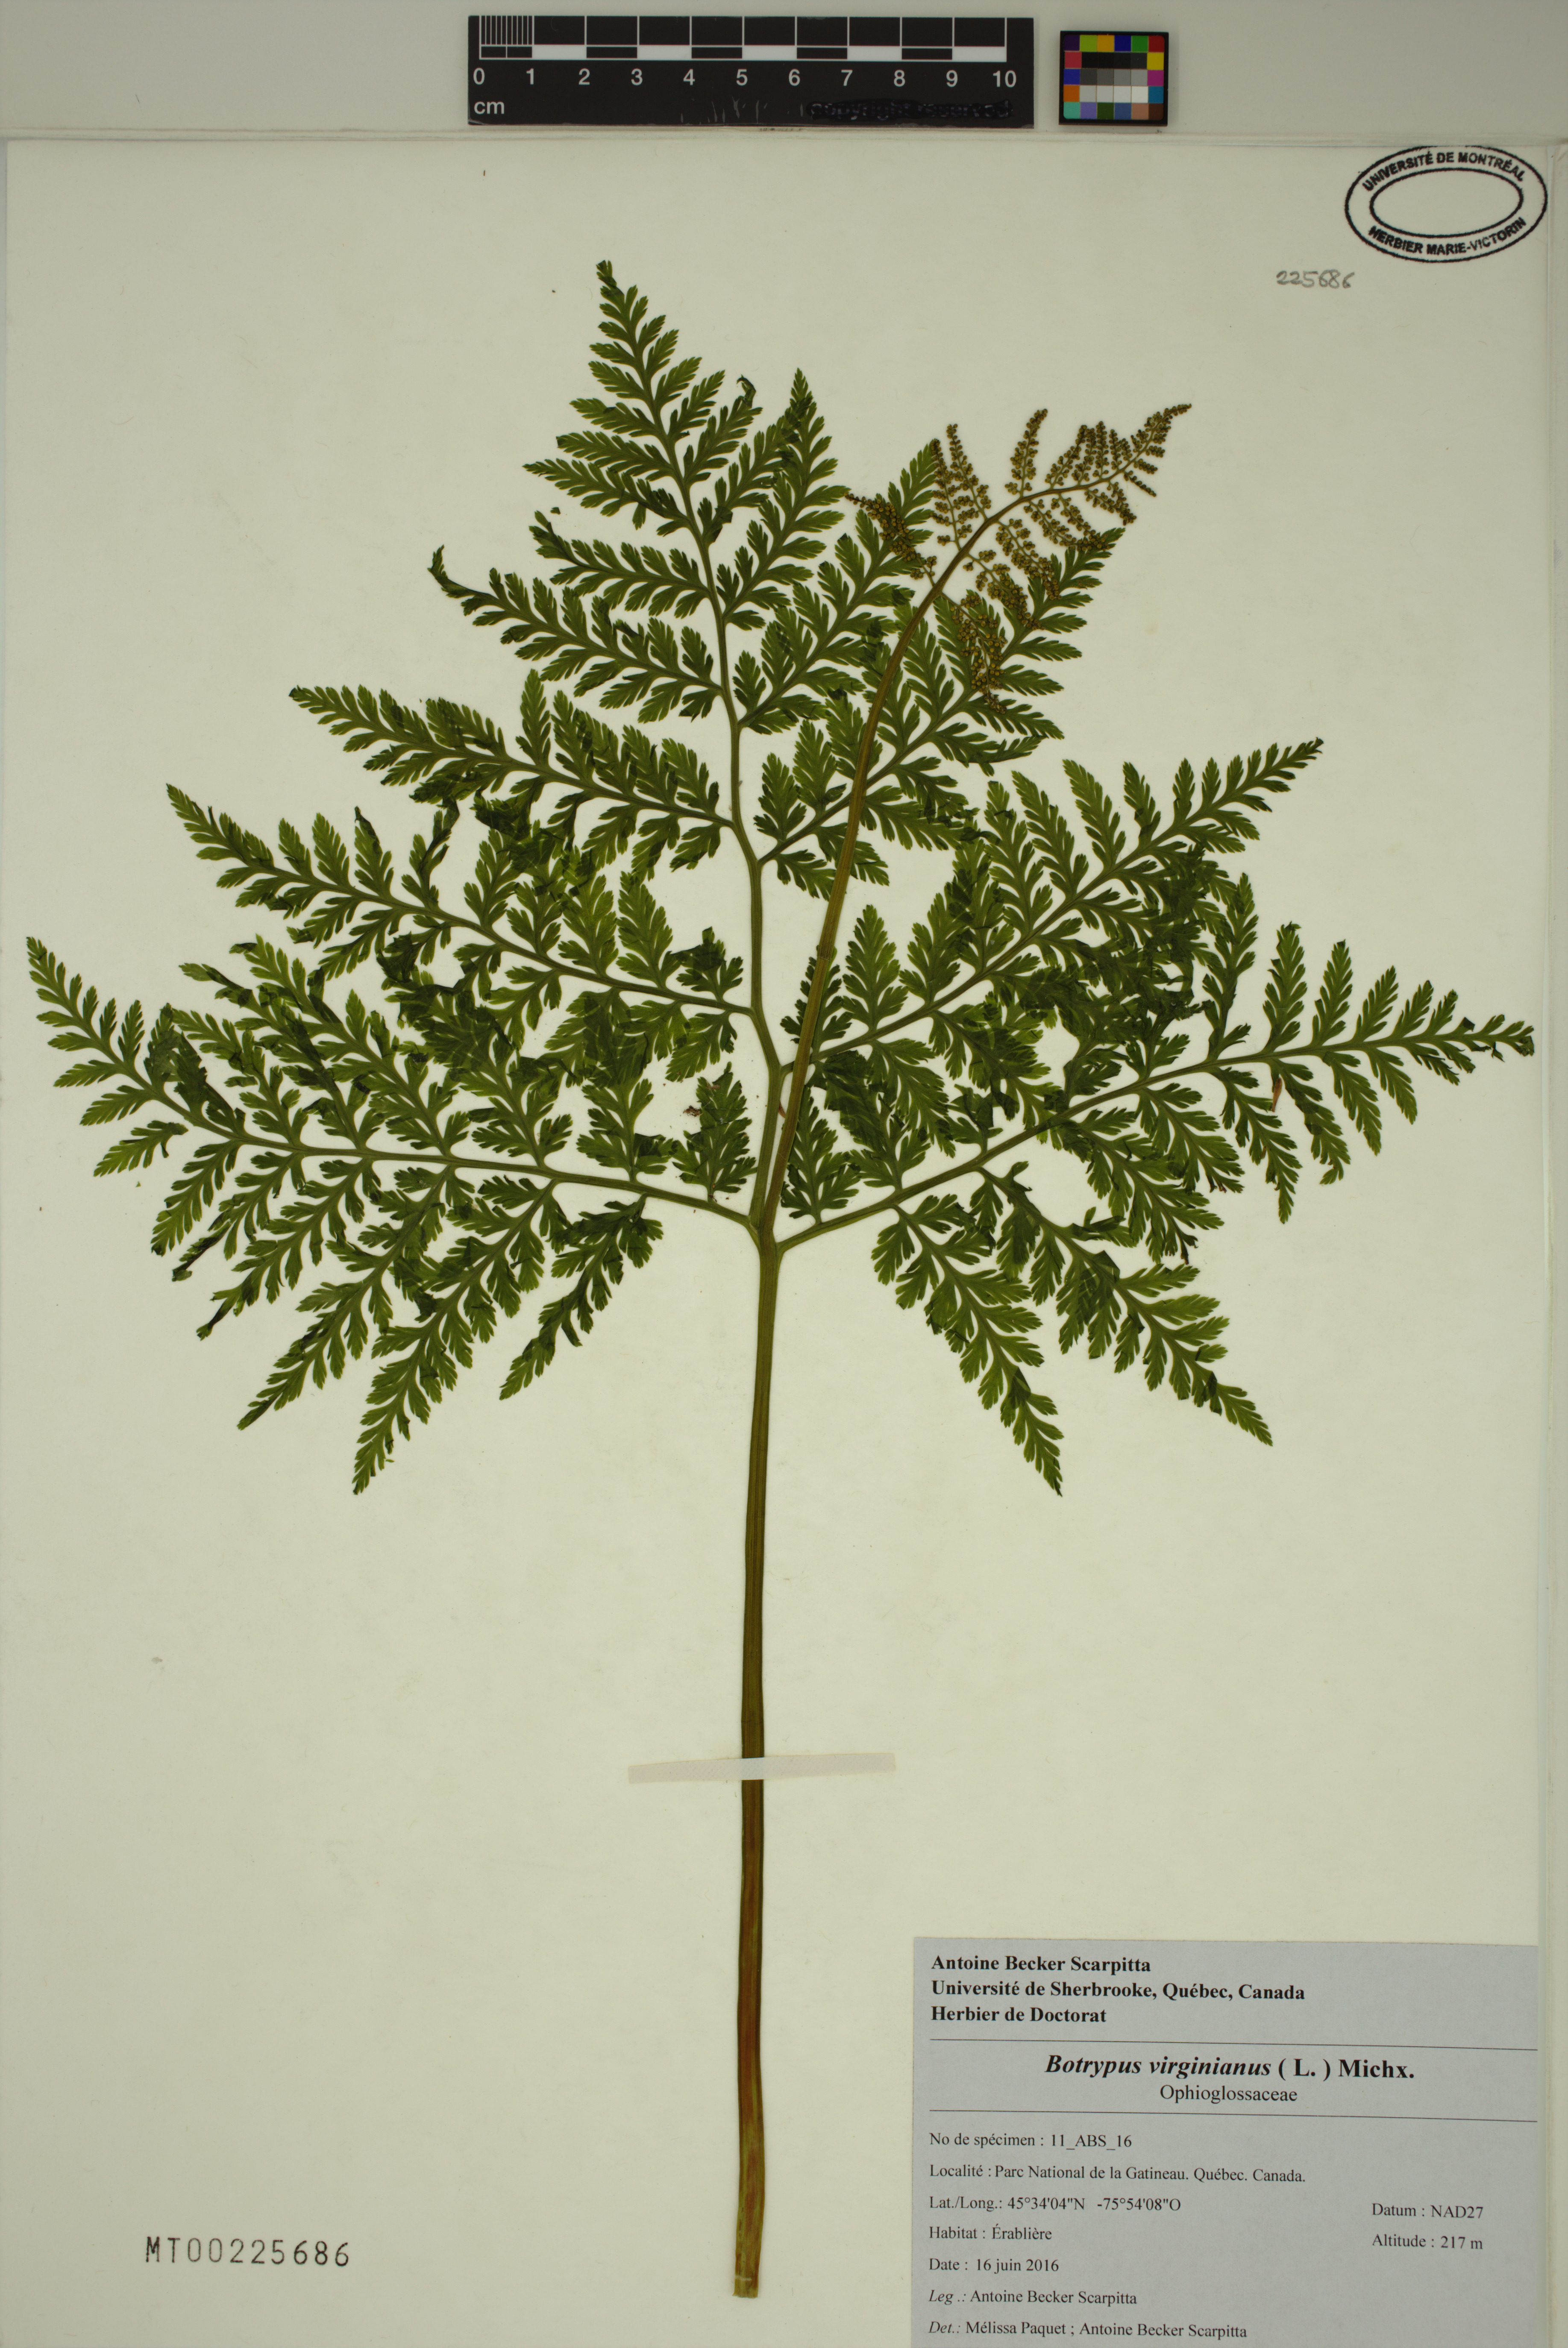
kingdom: Plantae
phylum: Tracheophyta
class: Polypodiopsida
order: Ophioglossales
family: Ophioglossaceae
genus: Botrypus
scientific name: Botrypus virginianus
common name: Common grapefern
